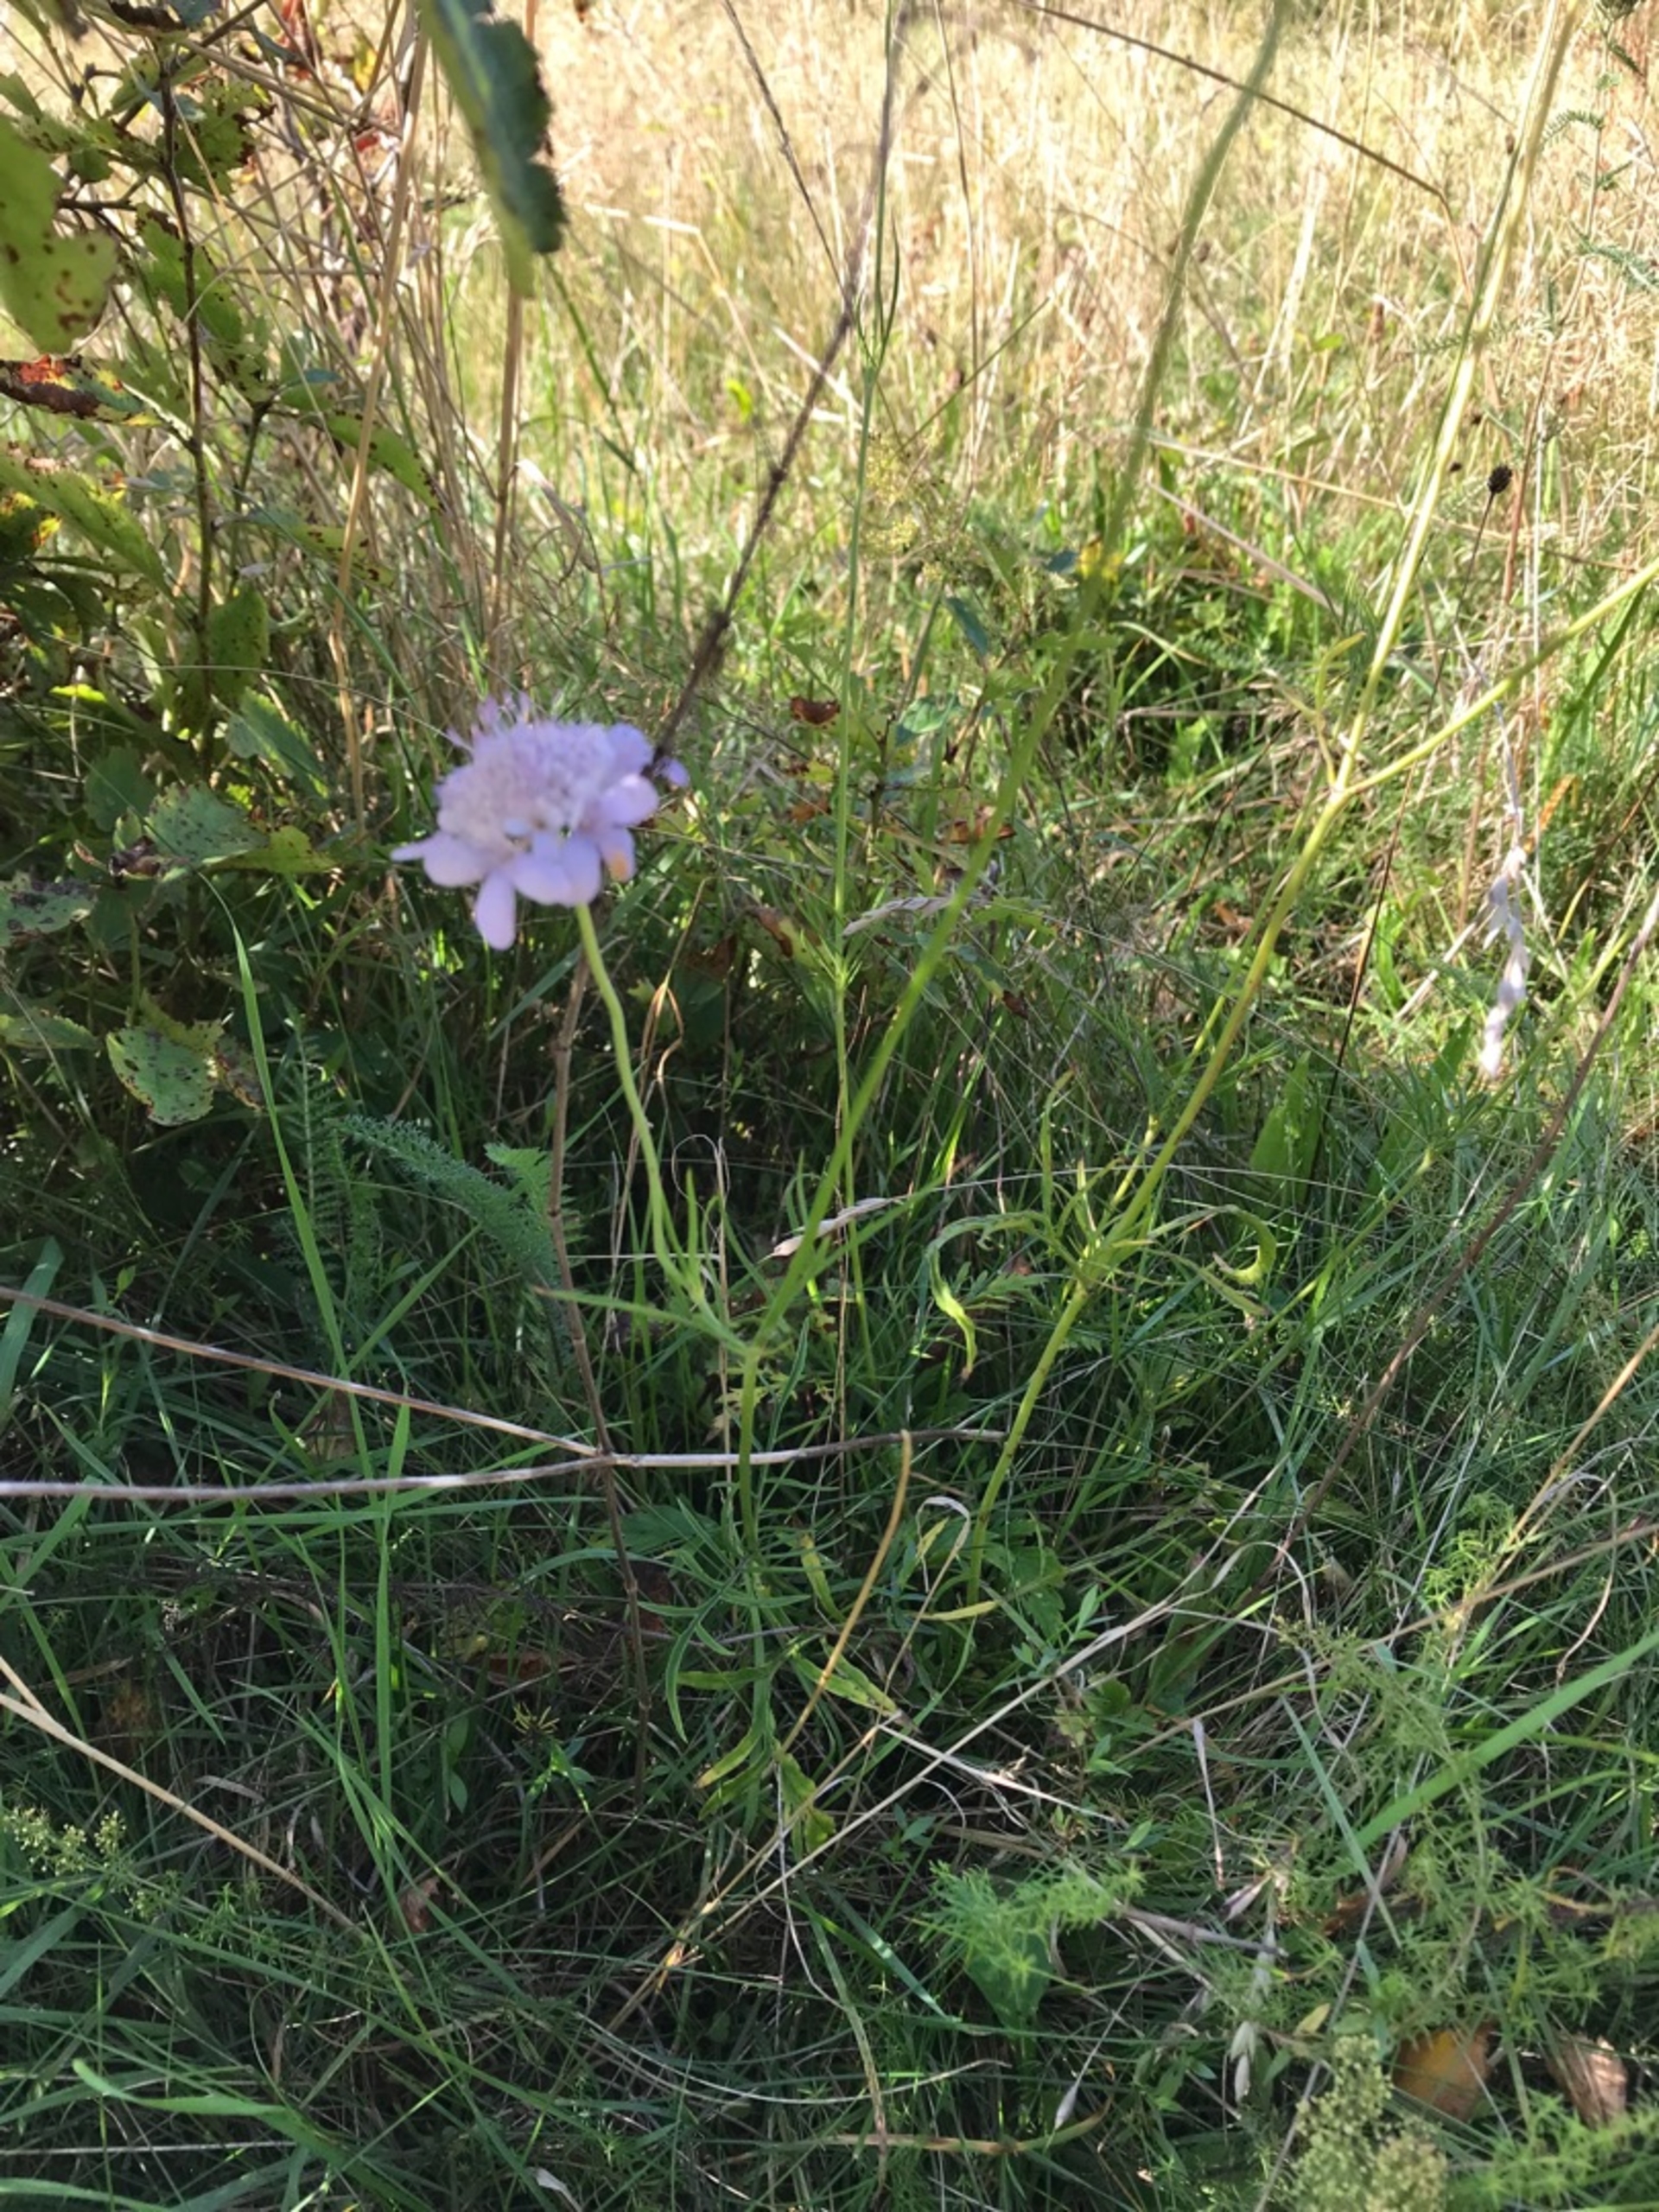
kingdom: Plantae
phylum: Tracheophyta
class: Magnoliopsida
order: Dipsacales
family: Caprifoliaceae
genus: Scabiosa
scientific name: Scabiosa columbaria
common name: Due-skabiose
